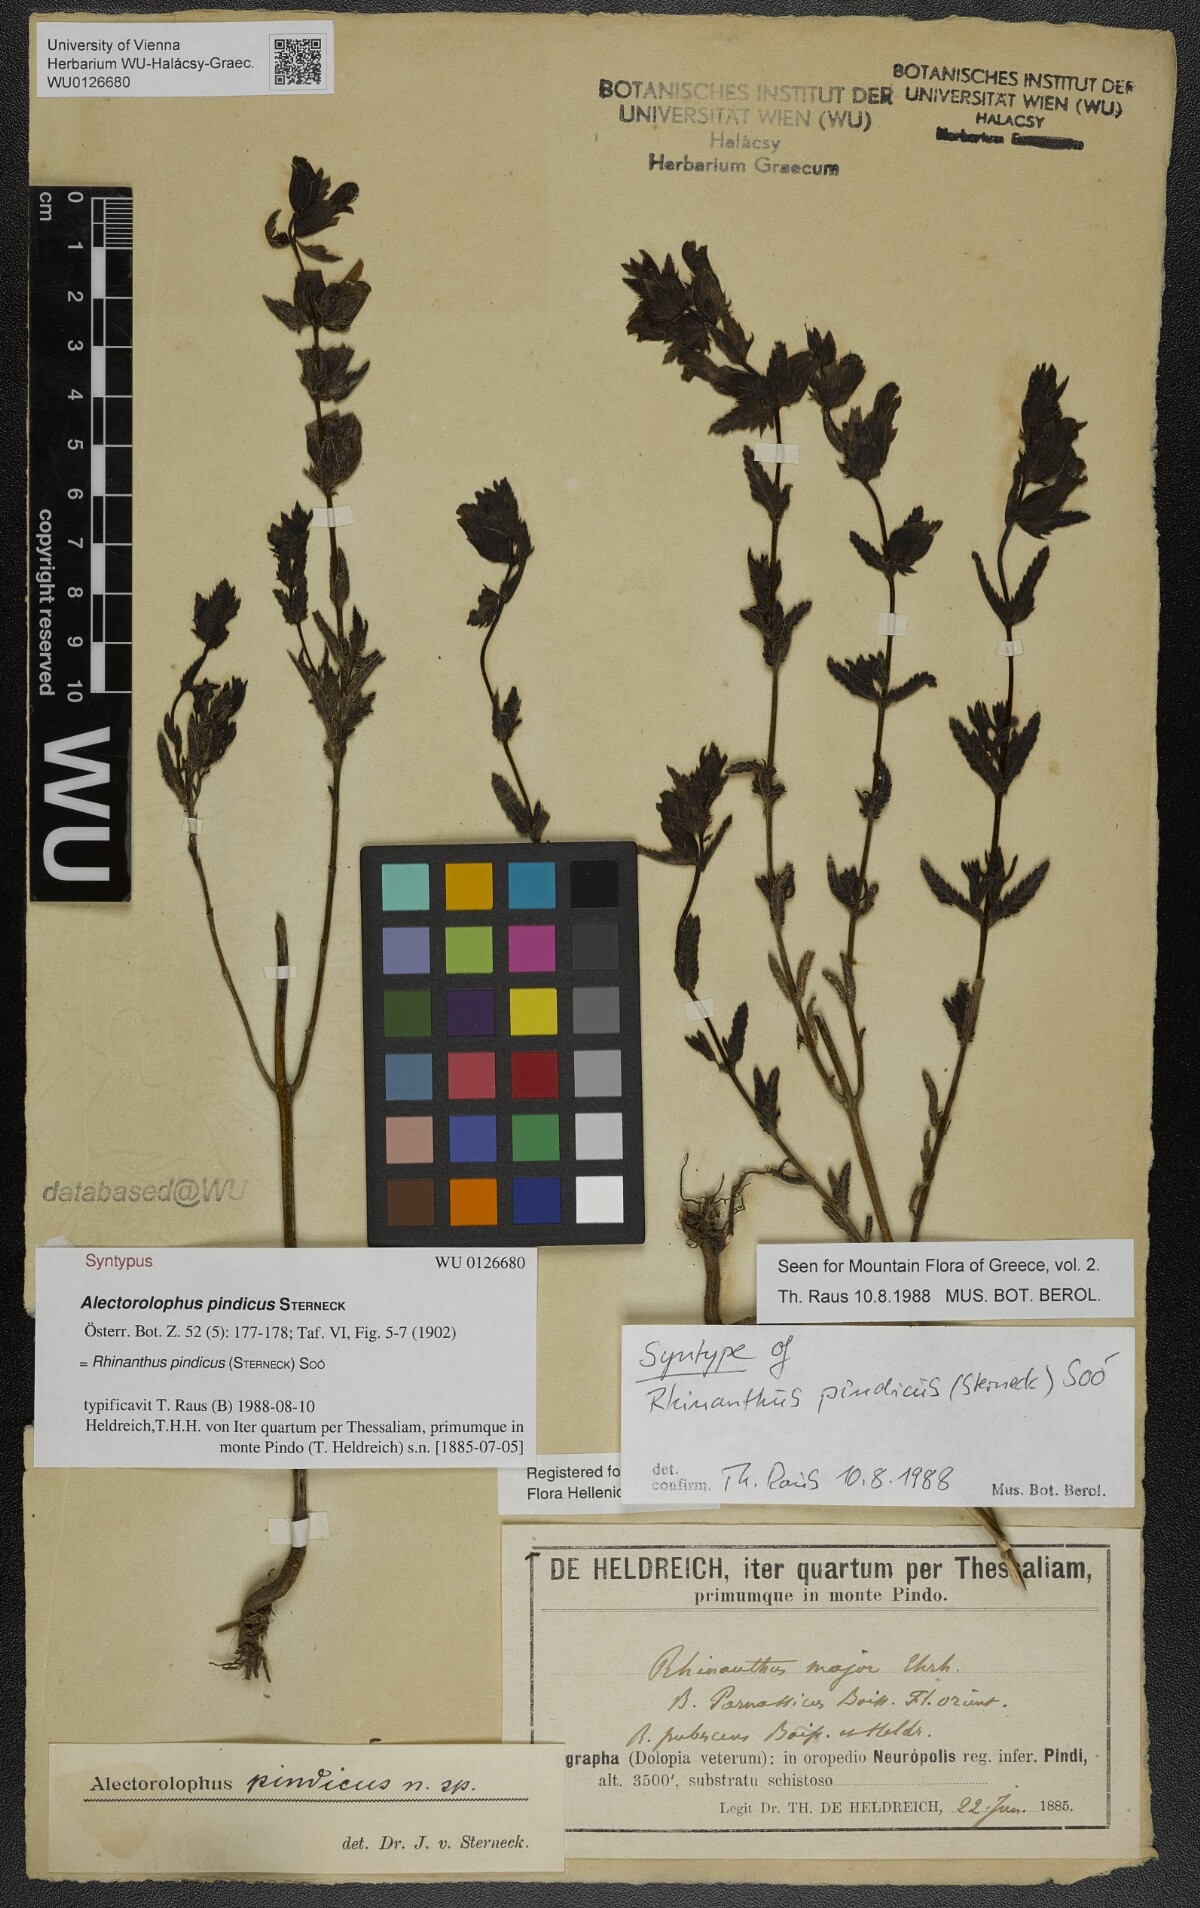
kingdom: Plantae
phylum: Tracheophyta
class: Magnoliopsida
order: Lamiales
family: Orobanchaceae
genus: Rhinanthus
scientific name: Rhinanthus pindicus
